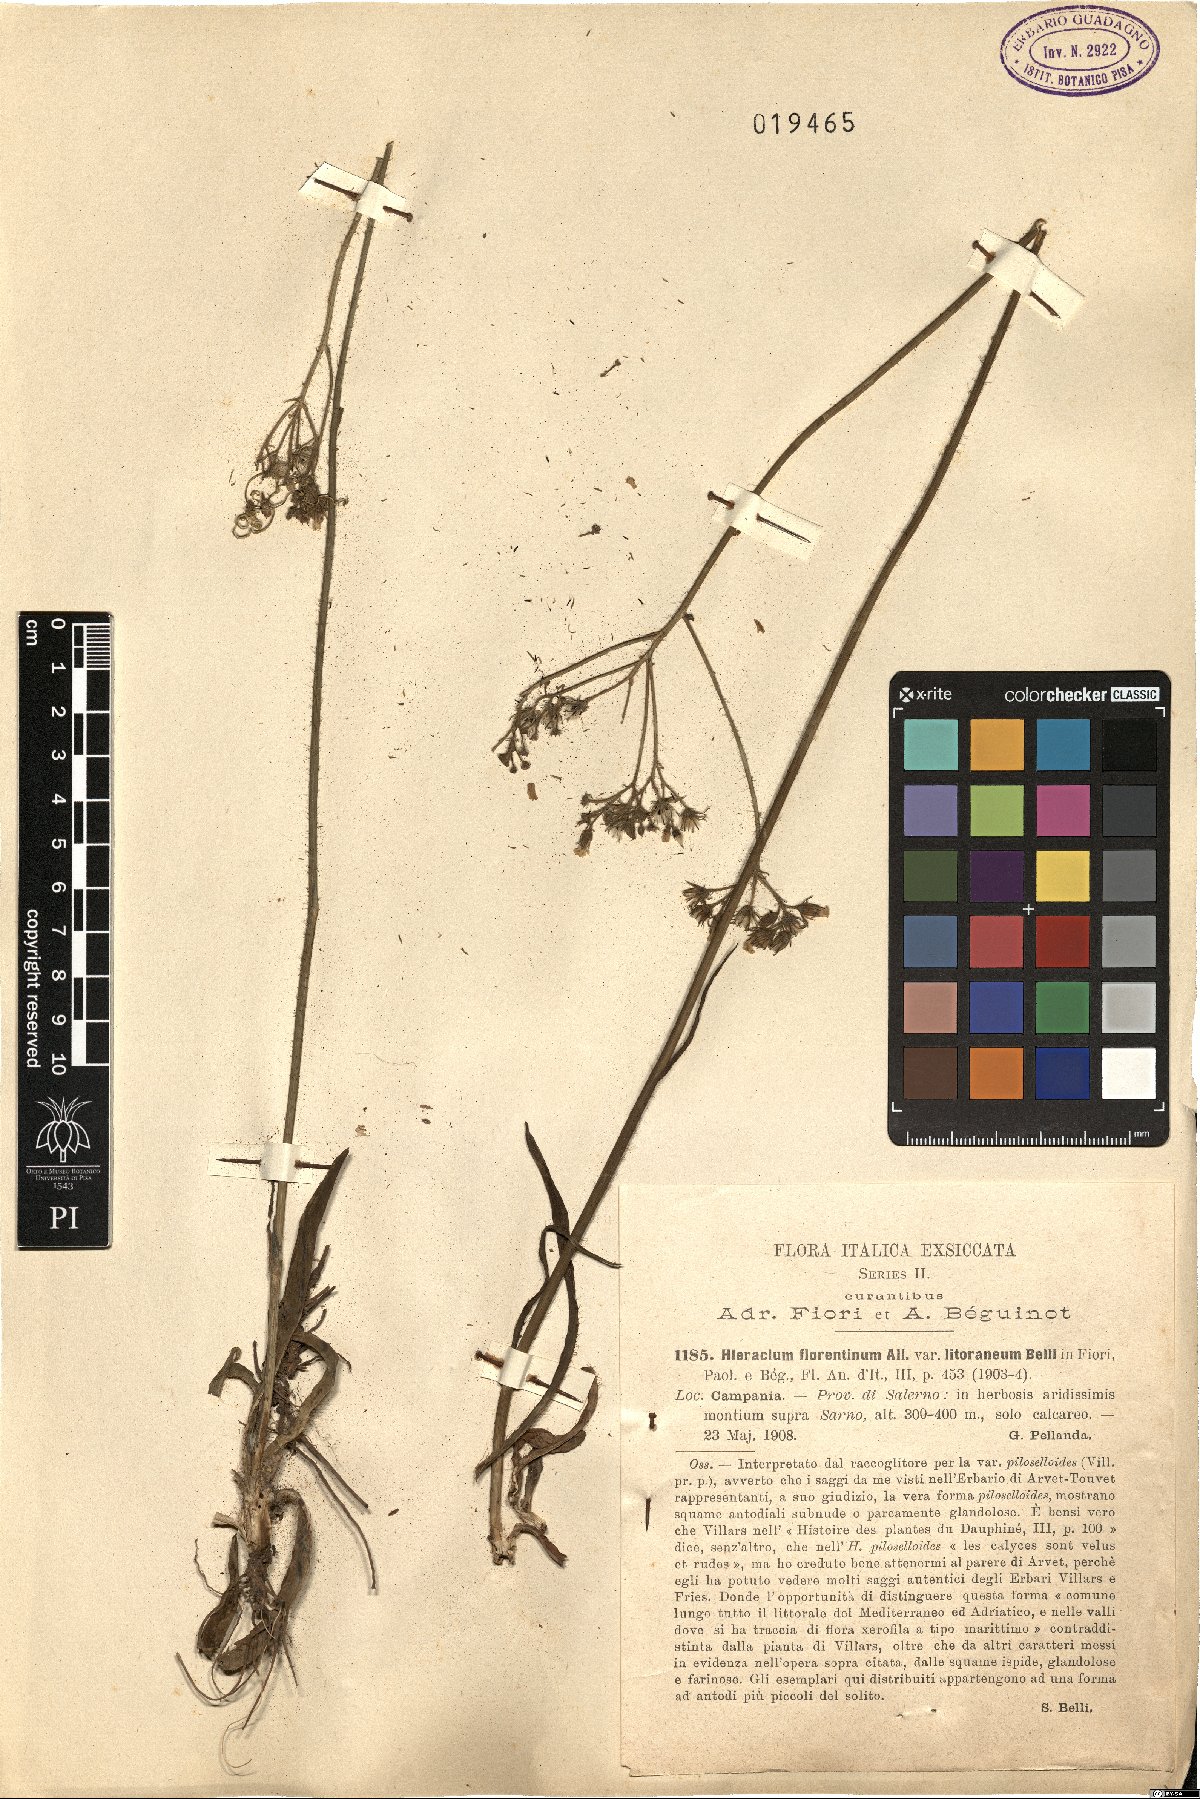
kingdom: Plantae
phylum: Tracheophyta
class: Magnoliopsida
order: Asterales
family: Asteraceae
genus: Hieracium
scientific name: Hieracium florentinum
